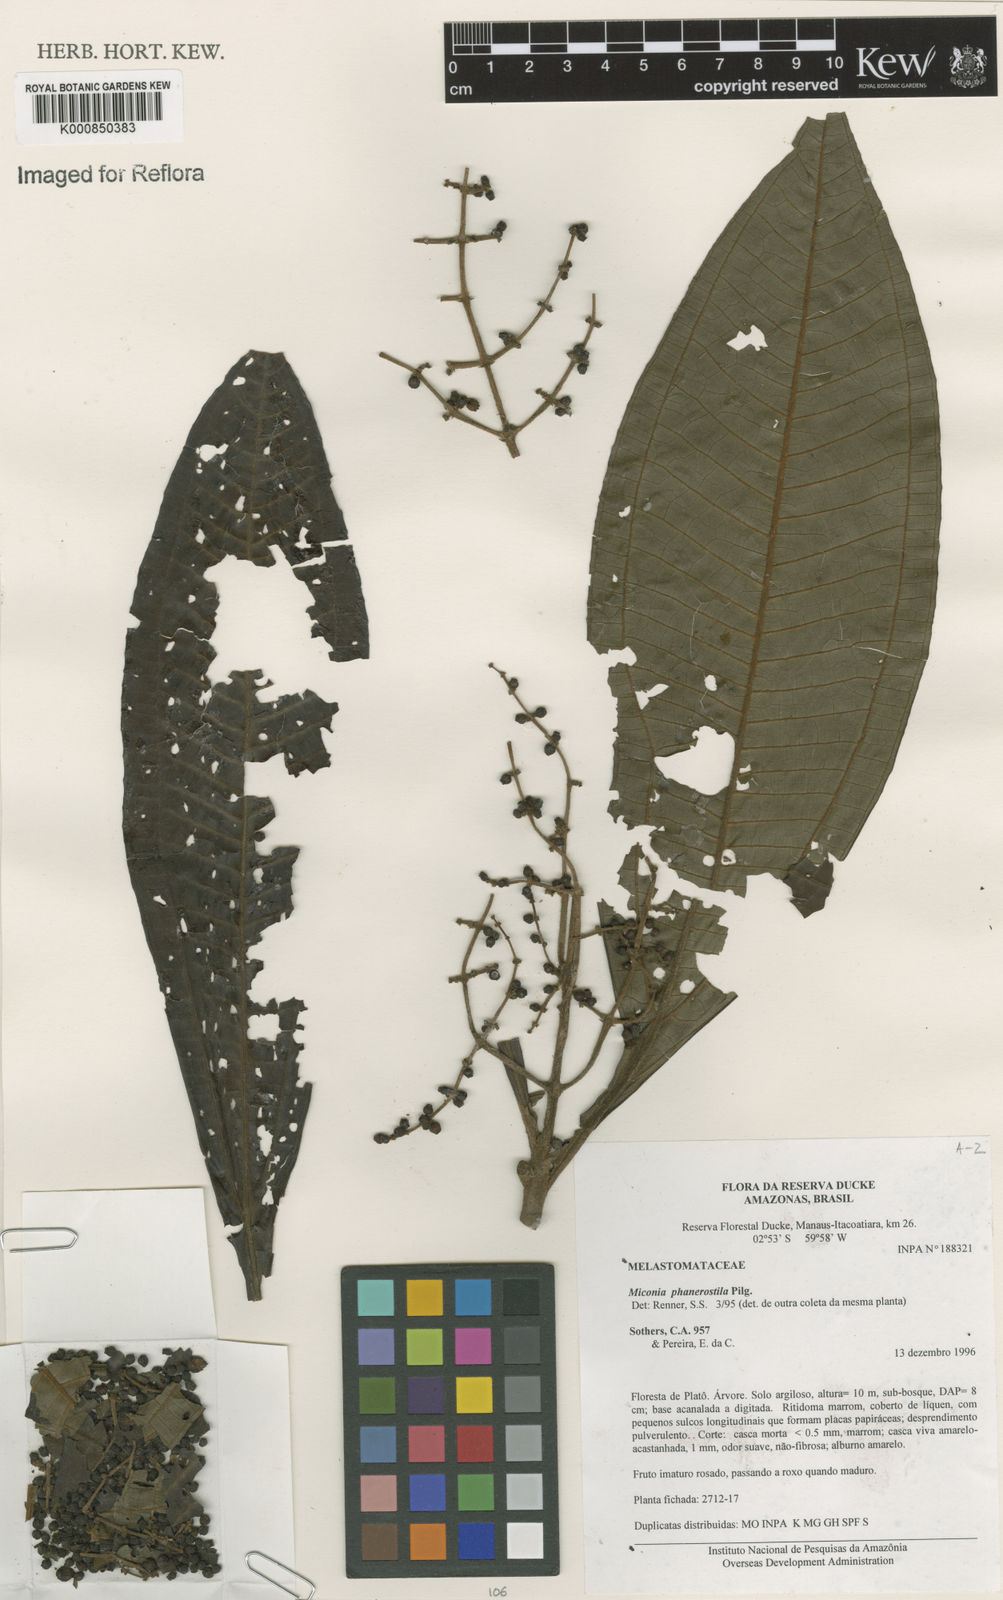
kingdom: Plantae
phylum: Tracheophyta
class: Magnoliopsida
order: Myrtales
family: Melastomataceae
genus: Miconia
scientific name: Miconia phanerostila
